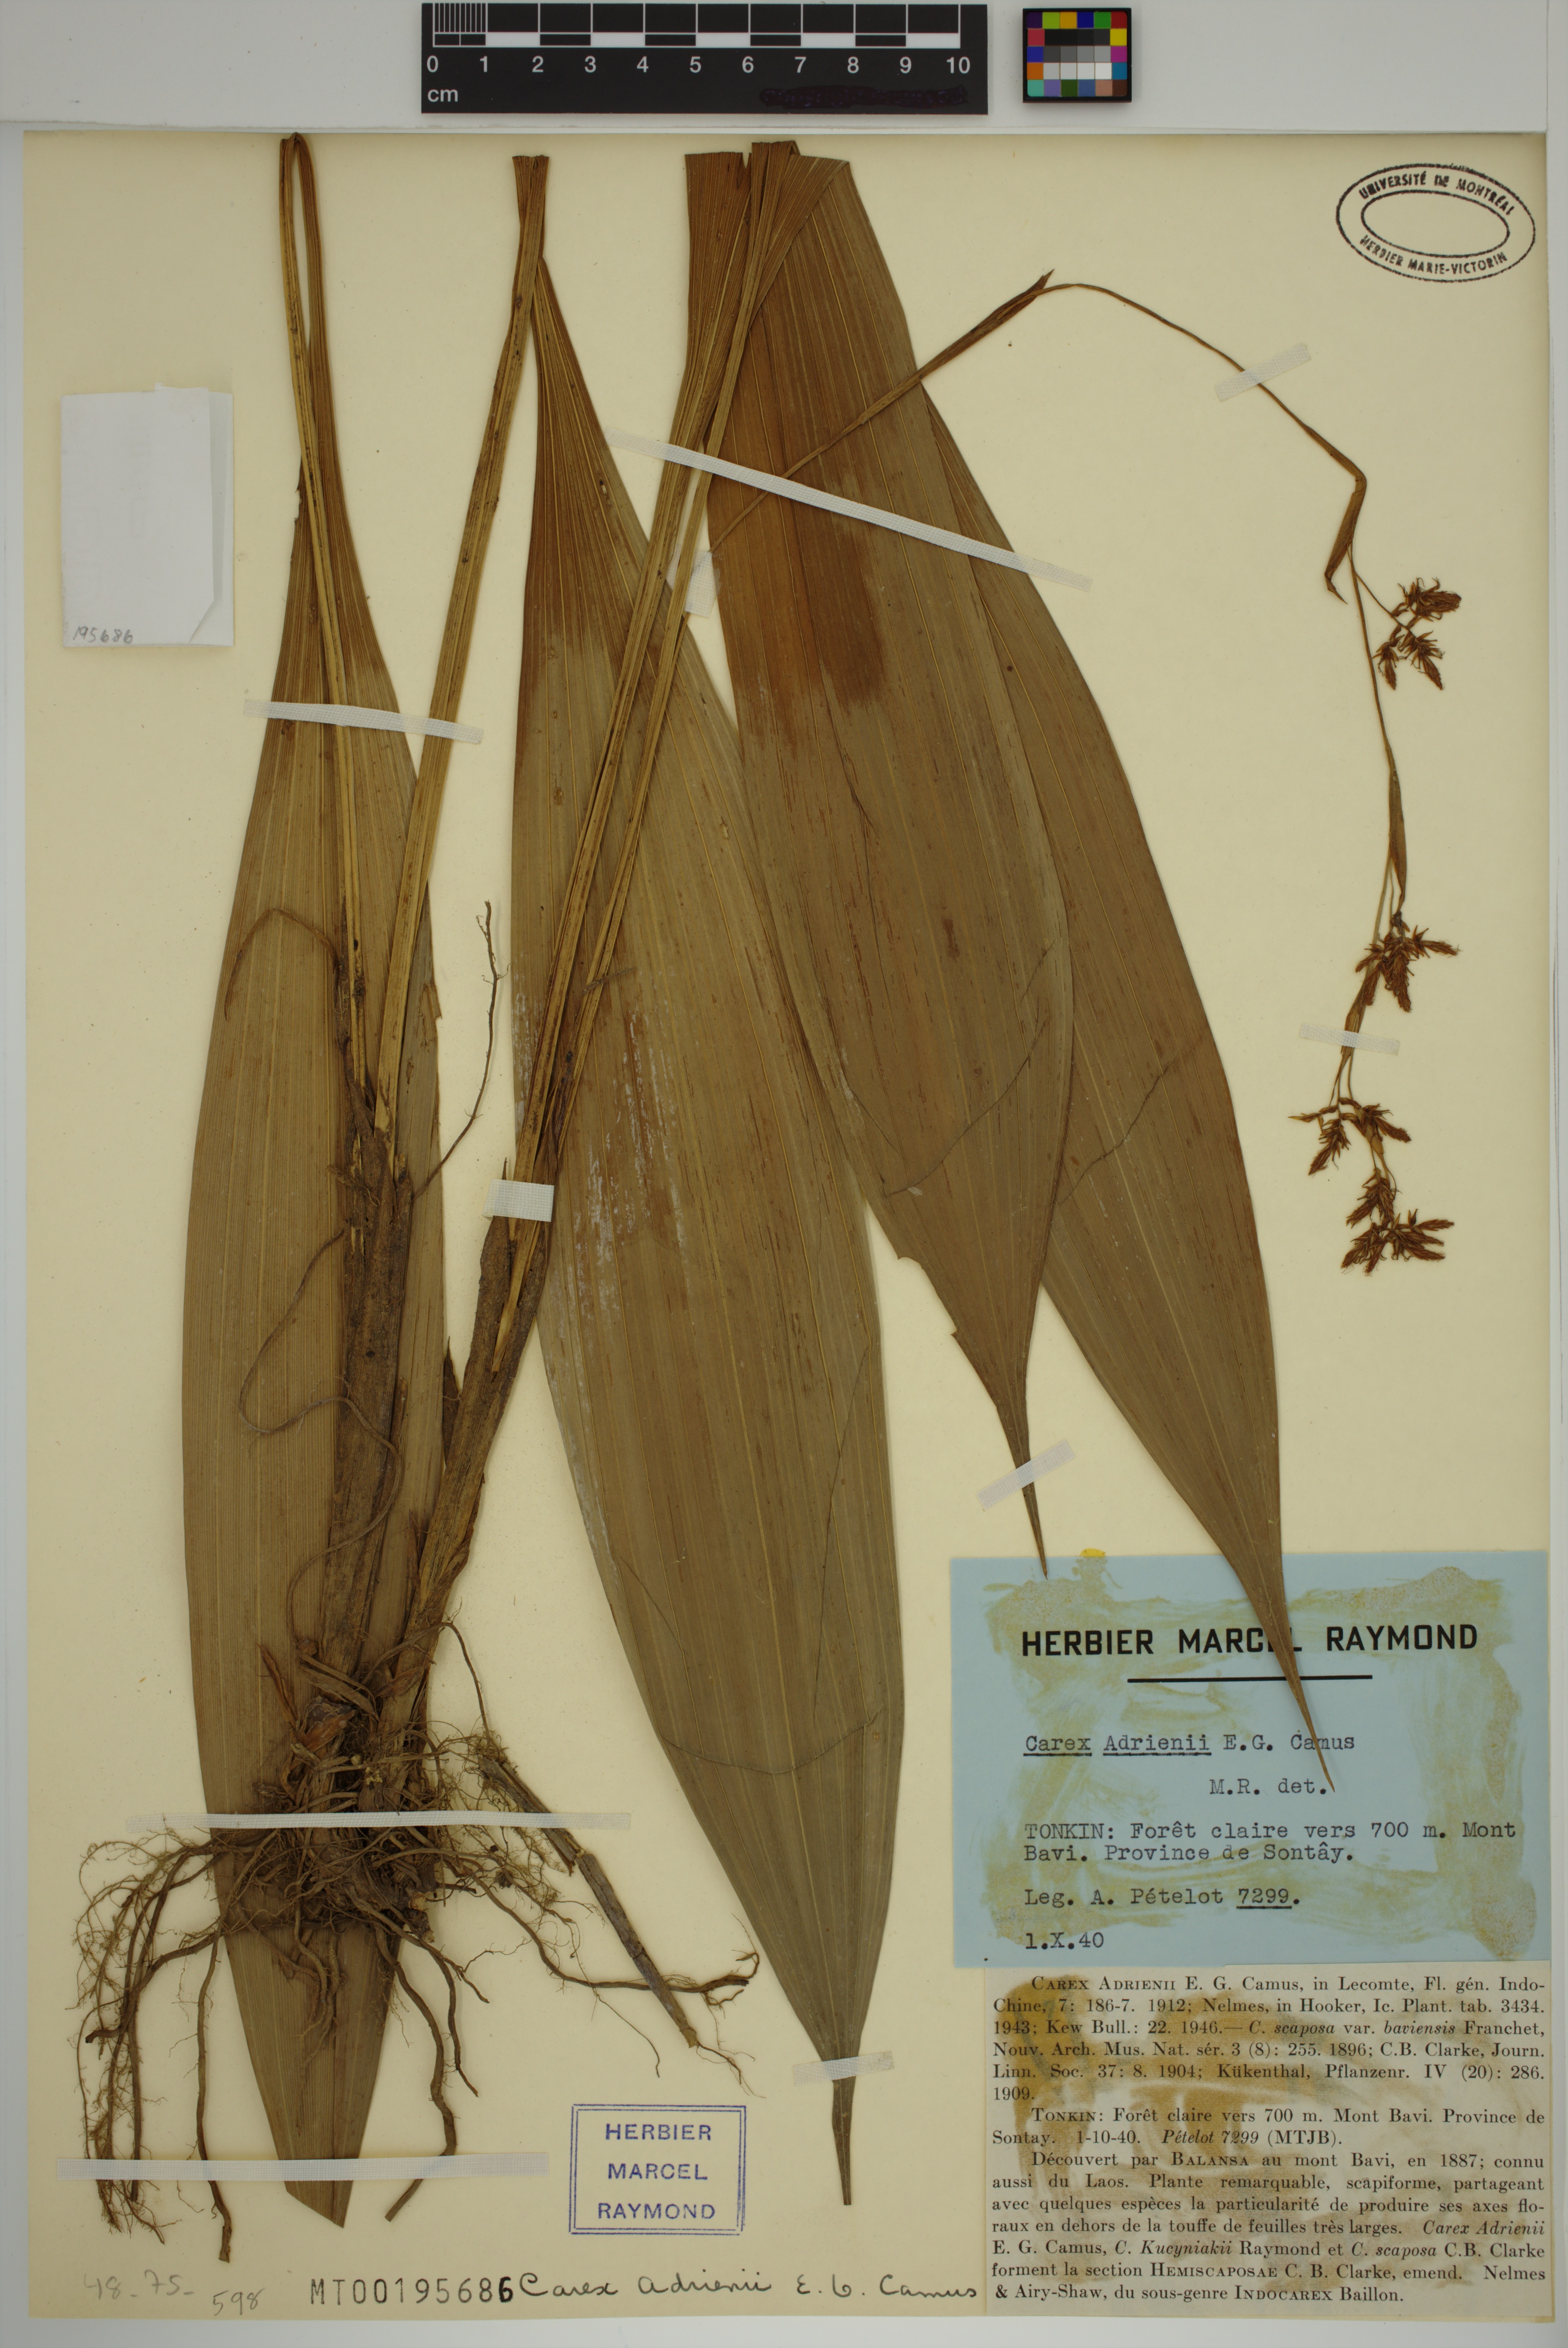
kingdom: Plantae
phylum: Tracheophyta
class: Liliopsida
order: Poales
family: Cyperaceae
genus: Carex
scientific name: Carex adrienii
